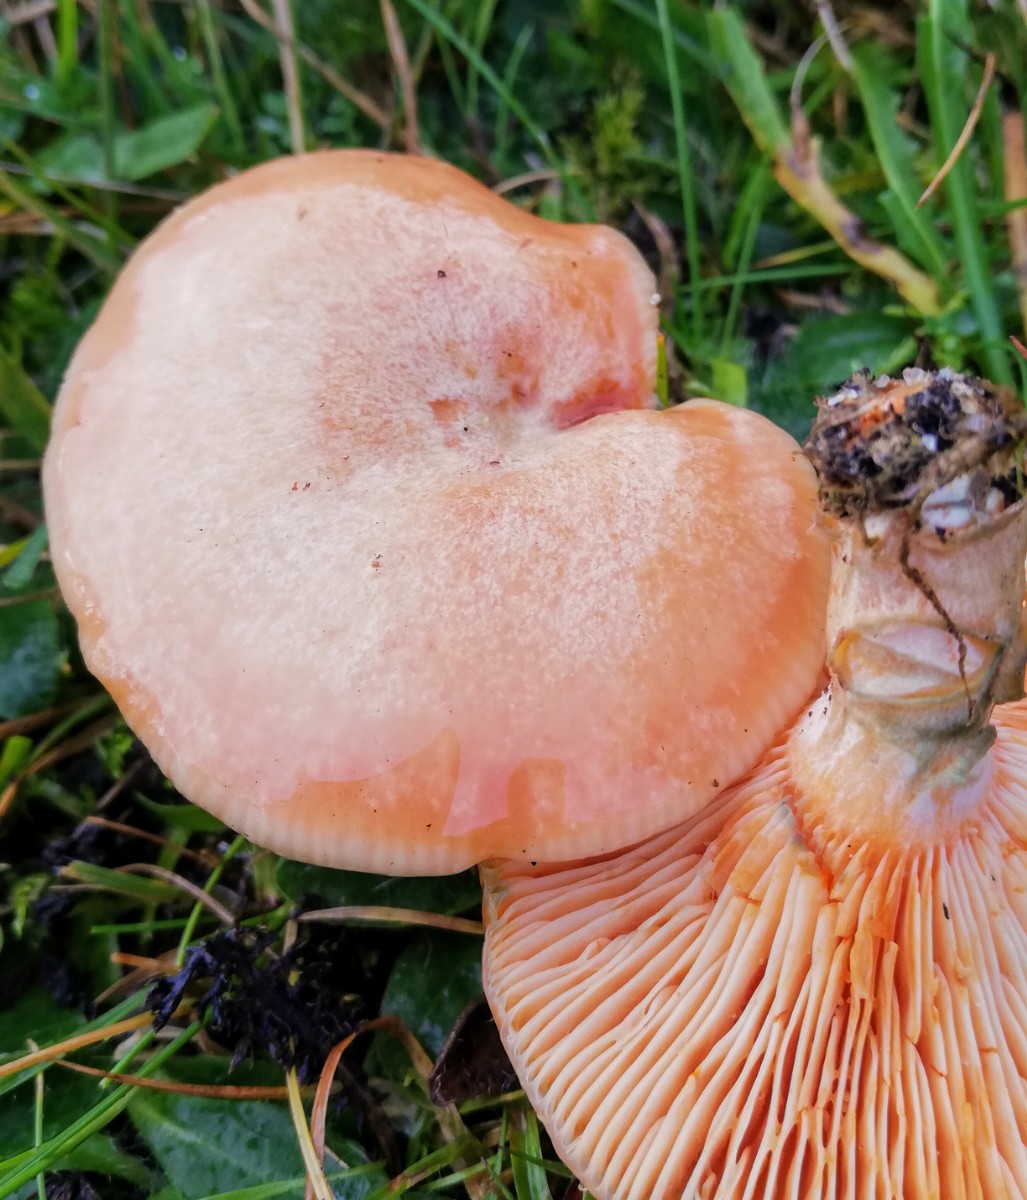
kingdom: Fungi
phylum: Basidiomycota
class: Agaricomycetes
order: Russulales
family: Russulaceae
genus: Lactarius
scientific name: Lactarius deliciosus
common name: velsmagende mælkehat
